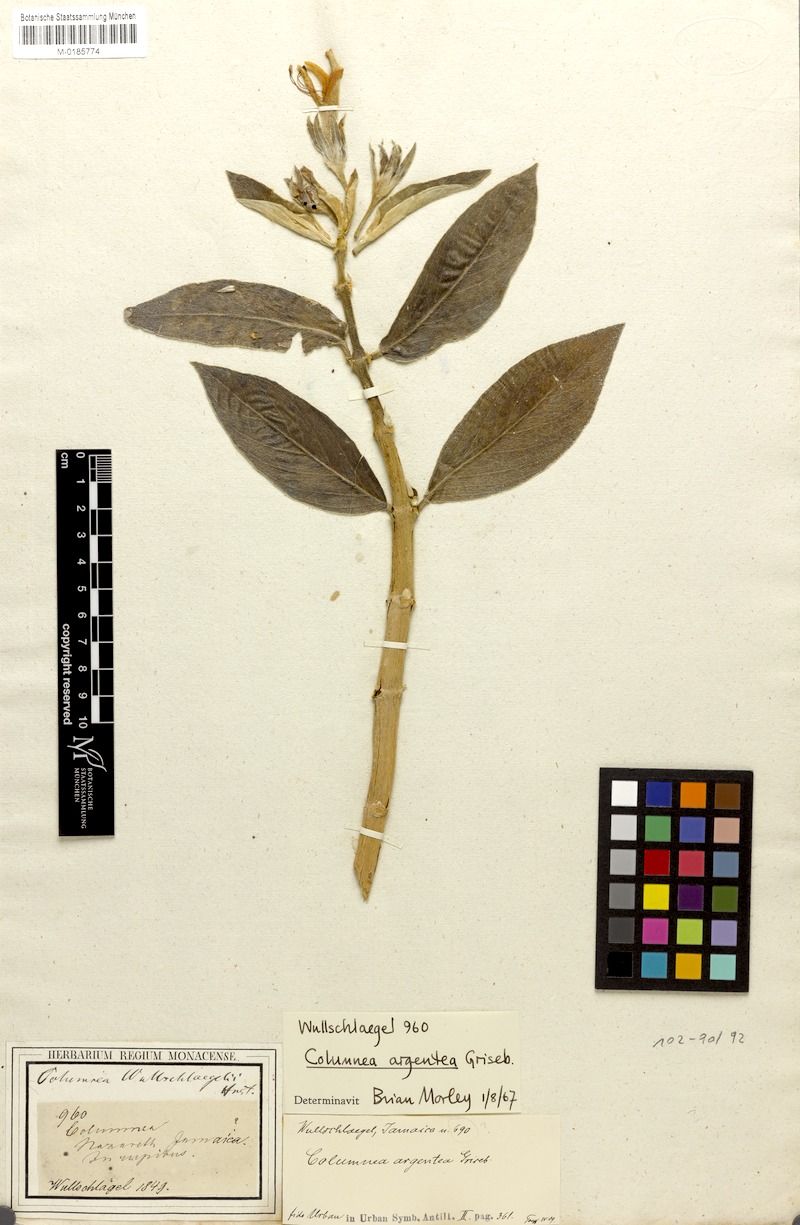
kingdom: Plantae
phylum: Tracheophyta
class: Magnoliopsida
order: Lamiales
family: Gesneriaceae
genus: Columnea
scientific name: Columnea argentea
